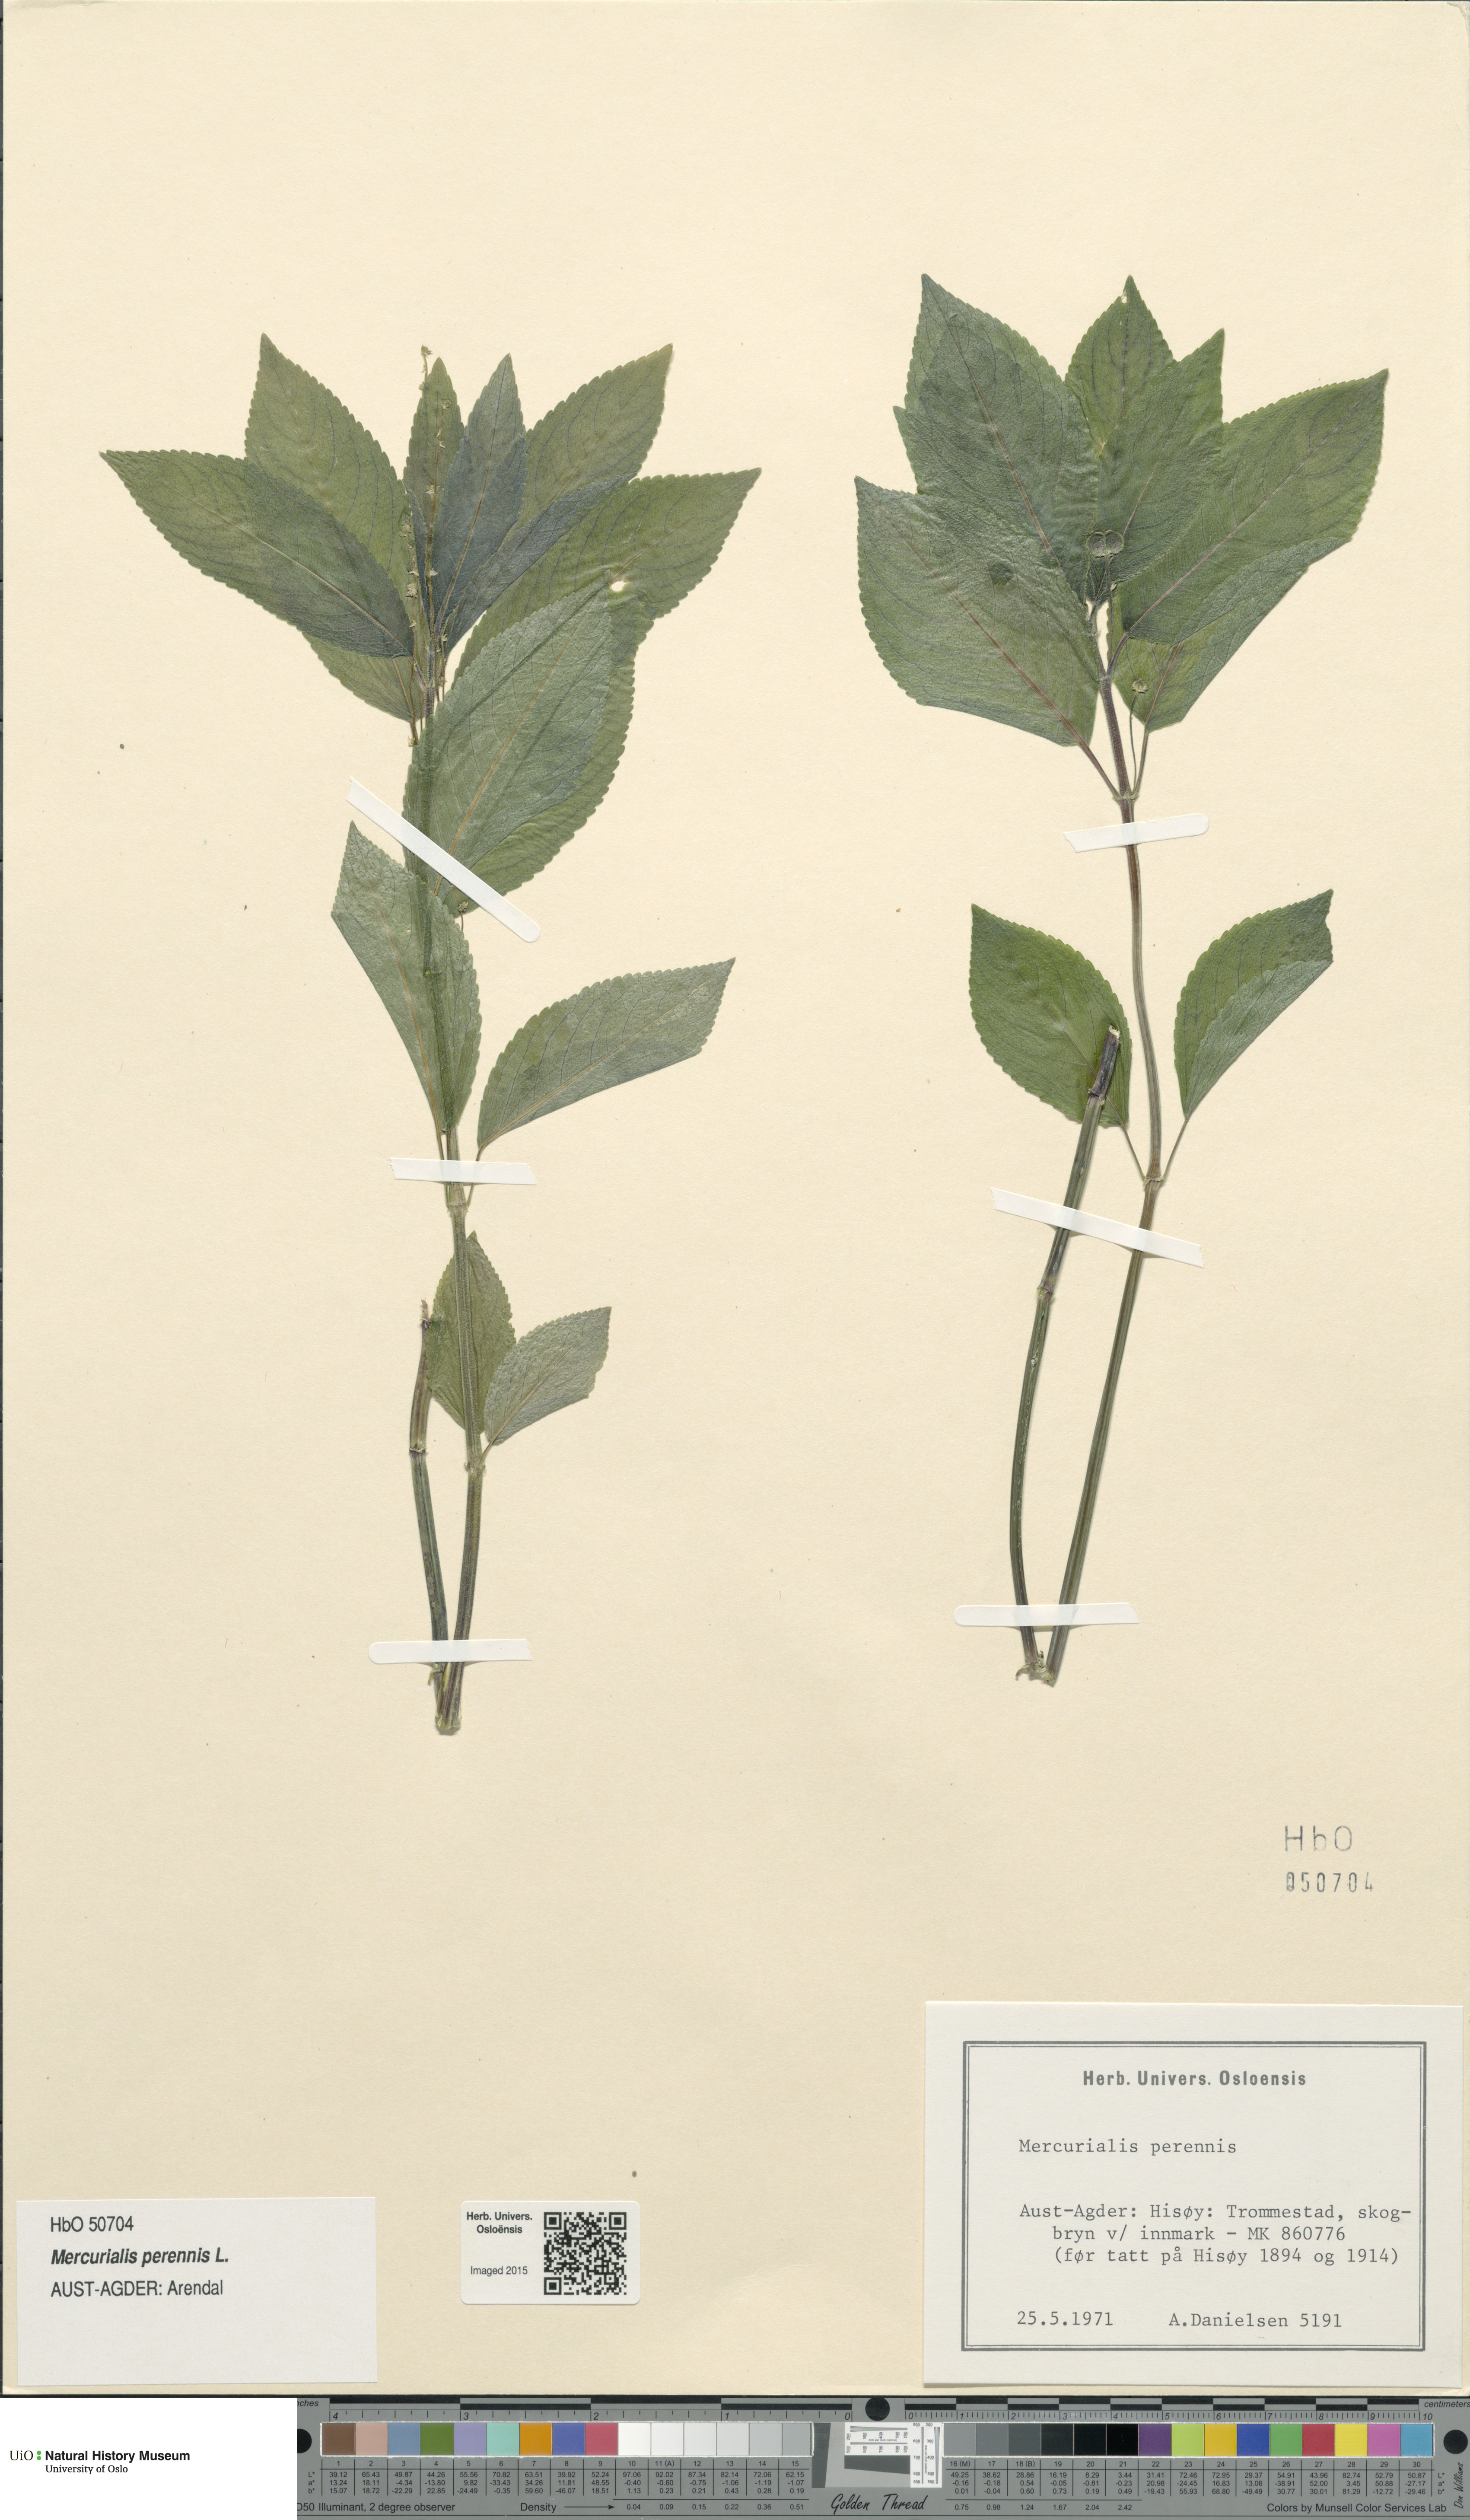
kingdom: Plantae
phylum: Tracheophyta
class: Magnoliopsida
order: Malpighiales
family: Euphorbiaceae
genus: Mercurialis
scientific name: Mercurialis perennis
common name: Dog mercury
